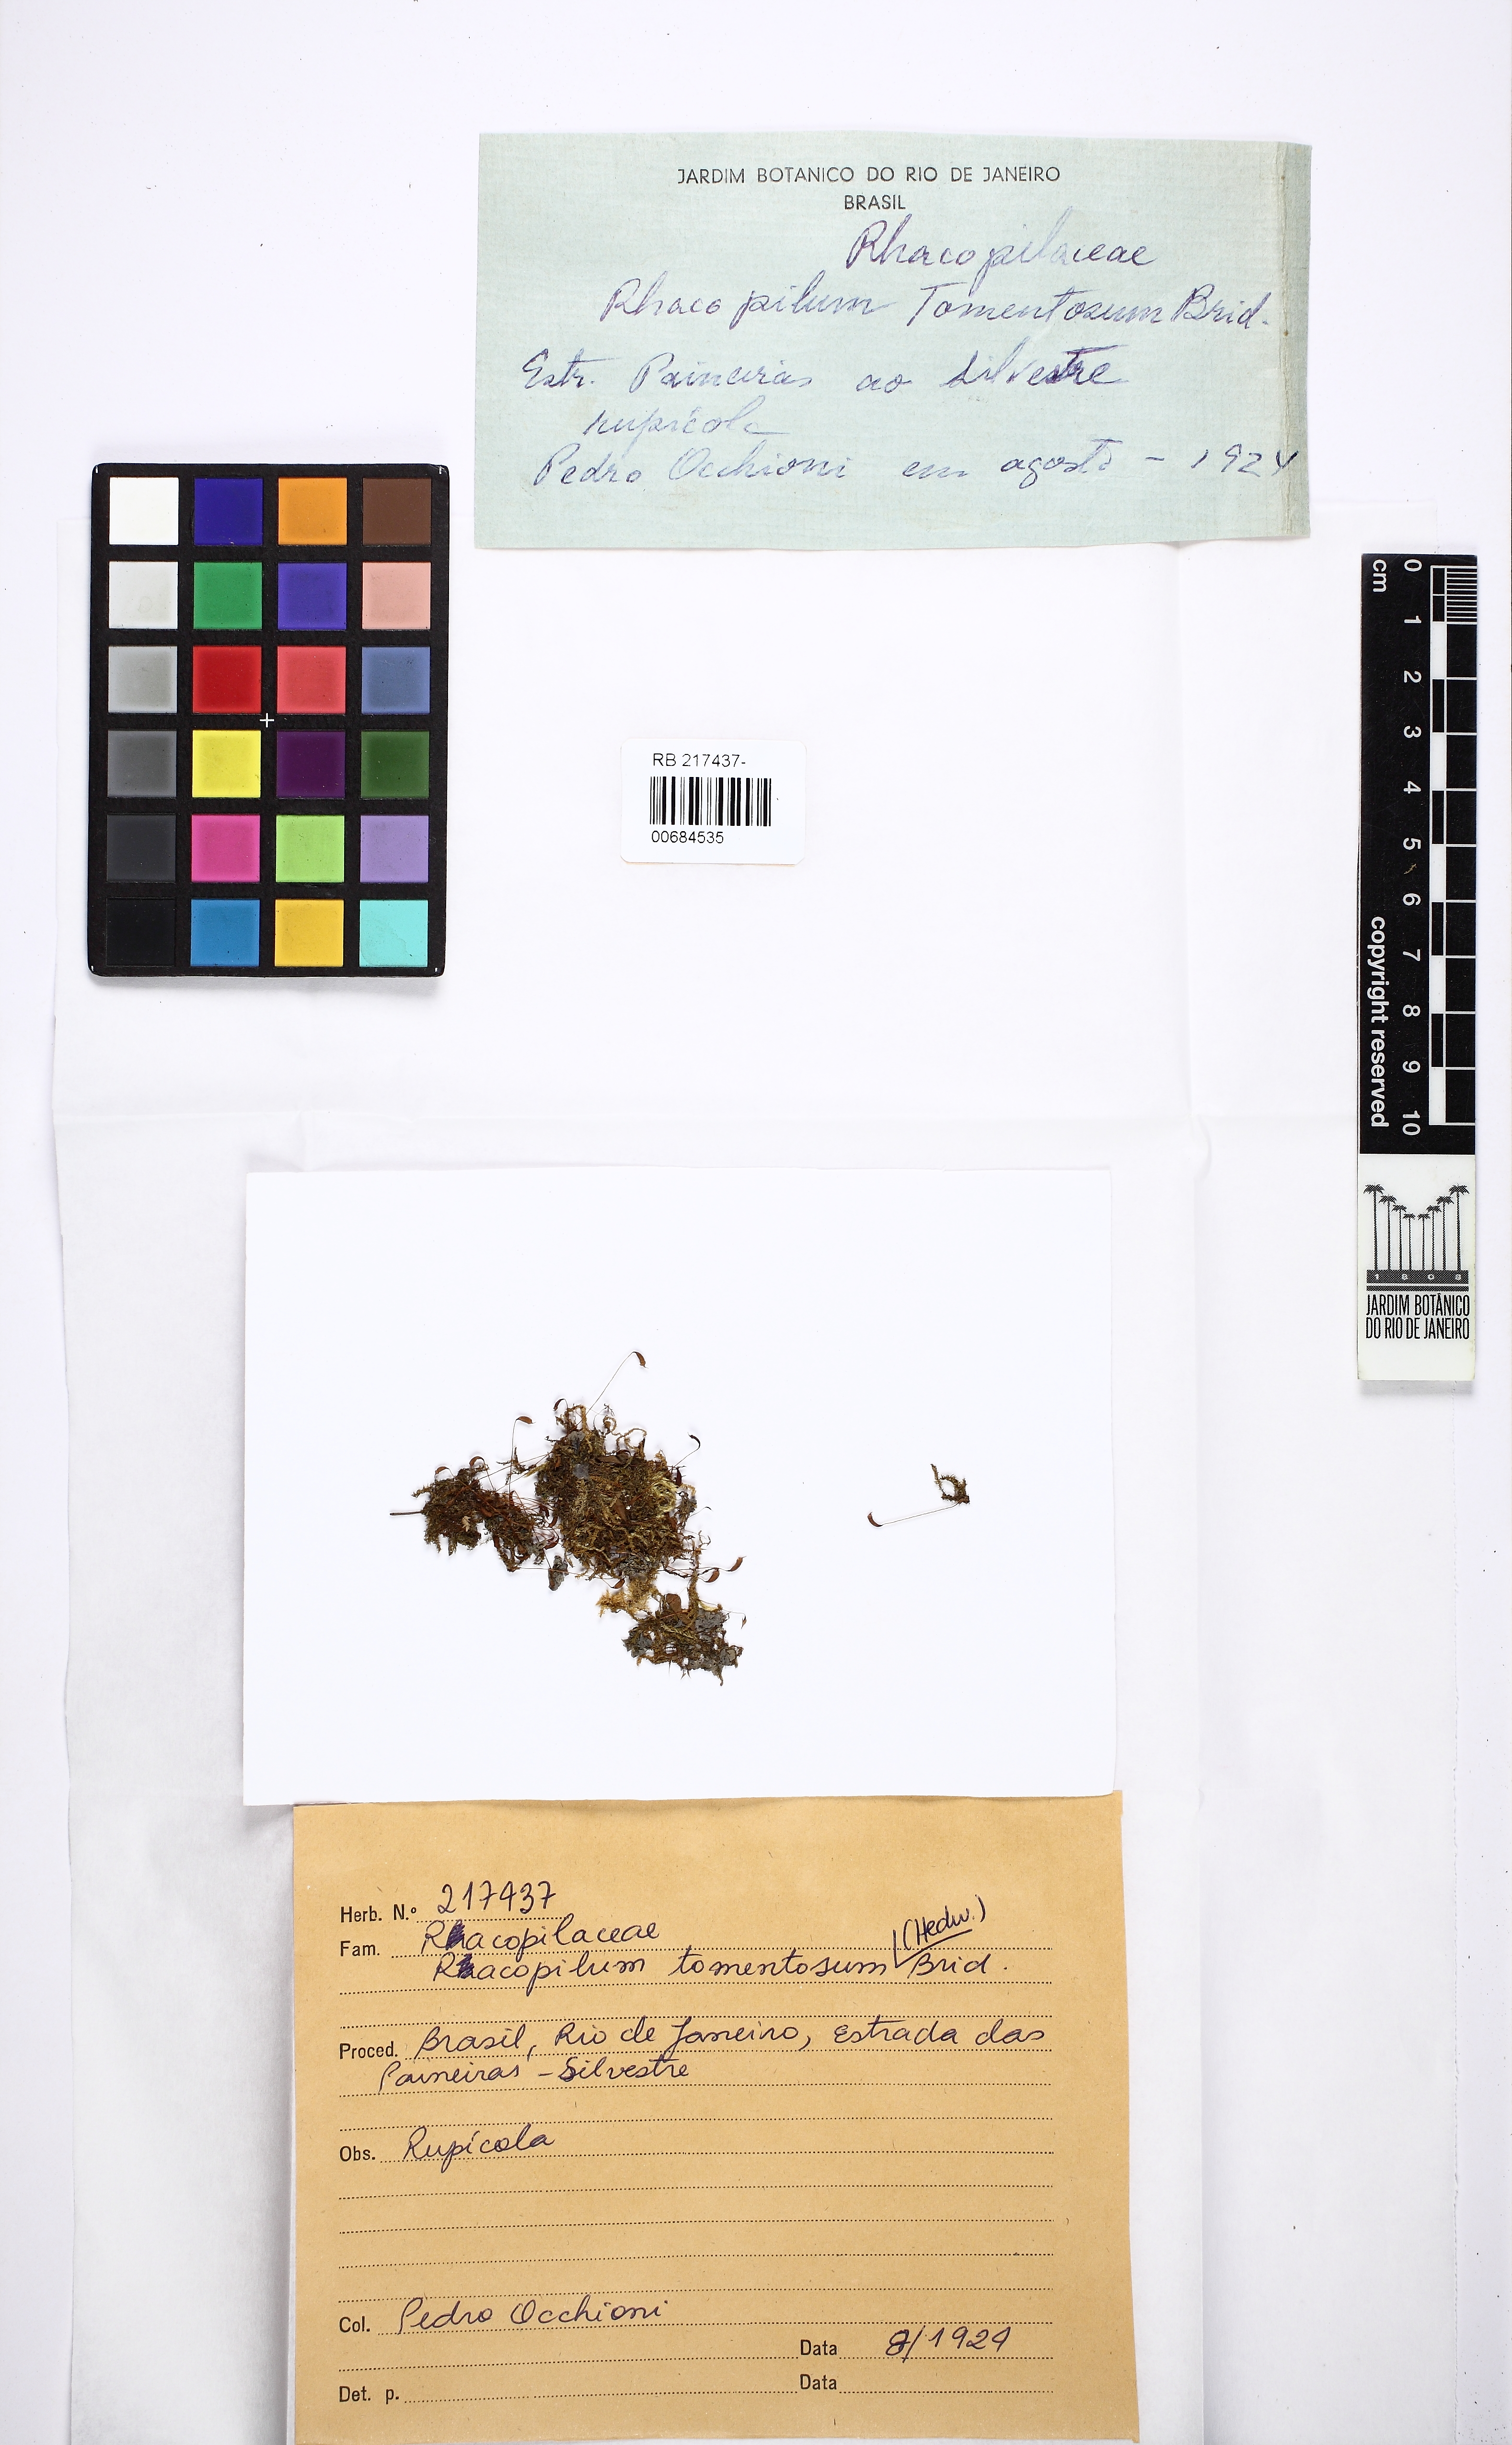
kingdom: Plantae
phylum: Bryophyta
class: Bryopsida
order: Hypnodendrales
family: Racopilaceae
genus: Racopilum
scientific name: Racopilum tomentosum
